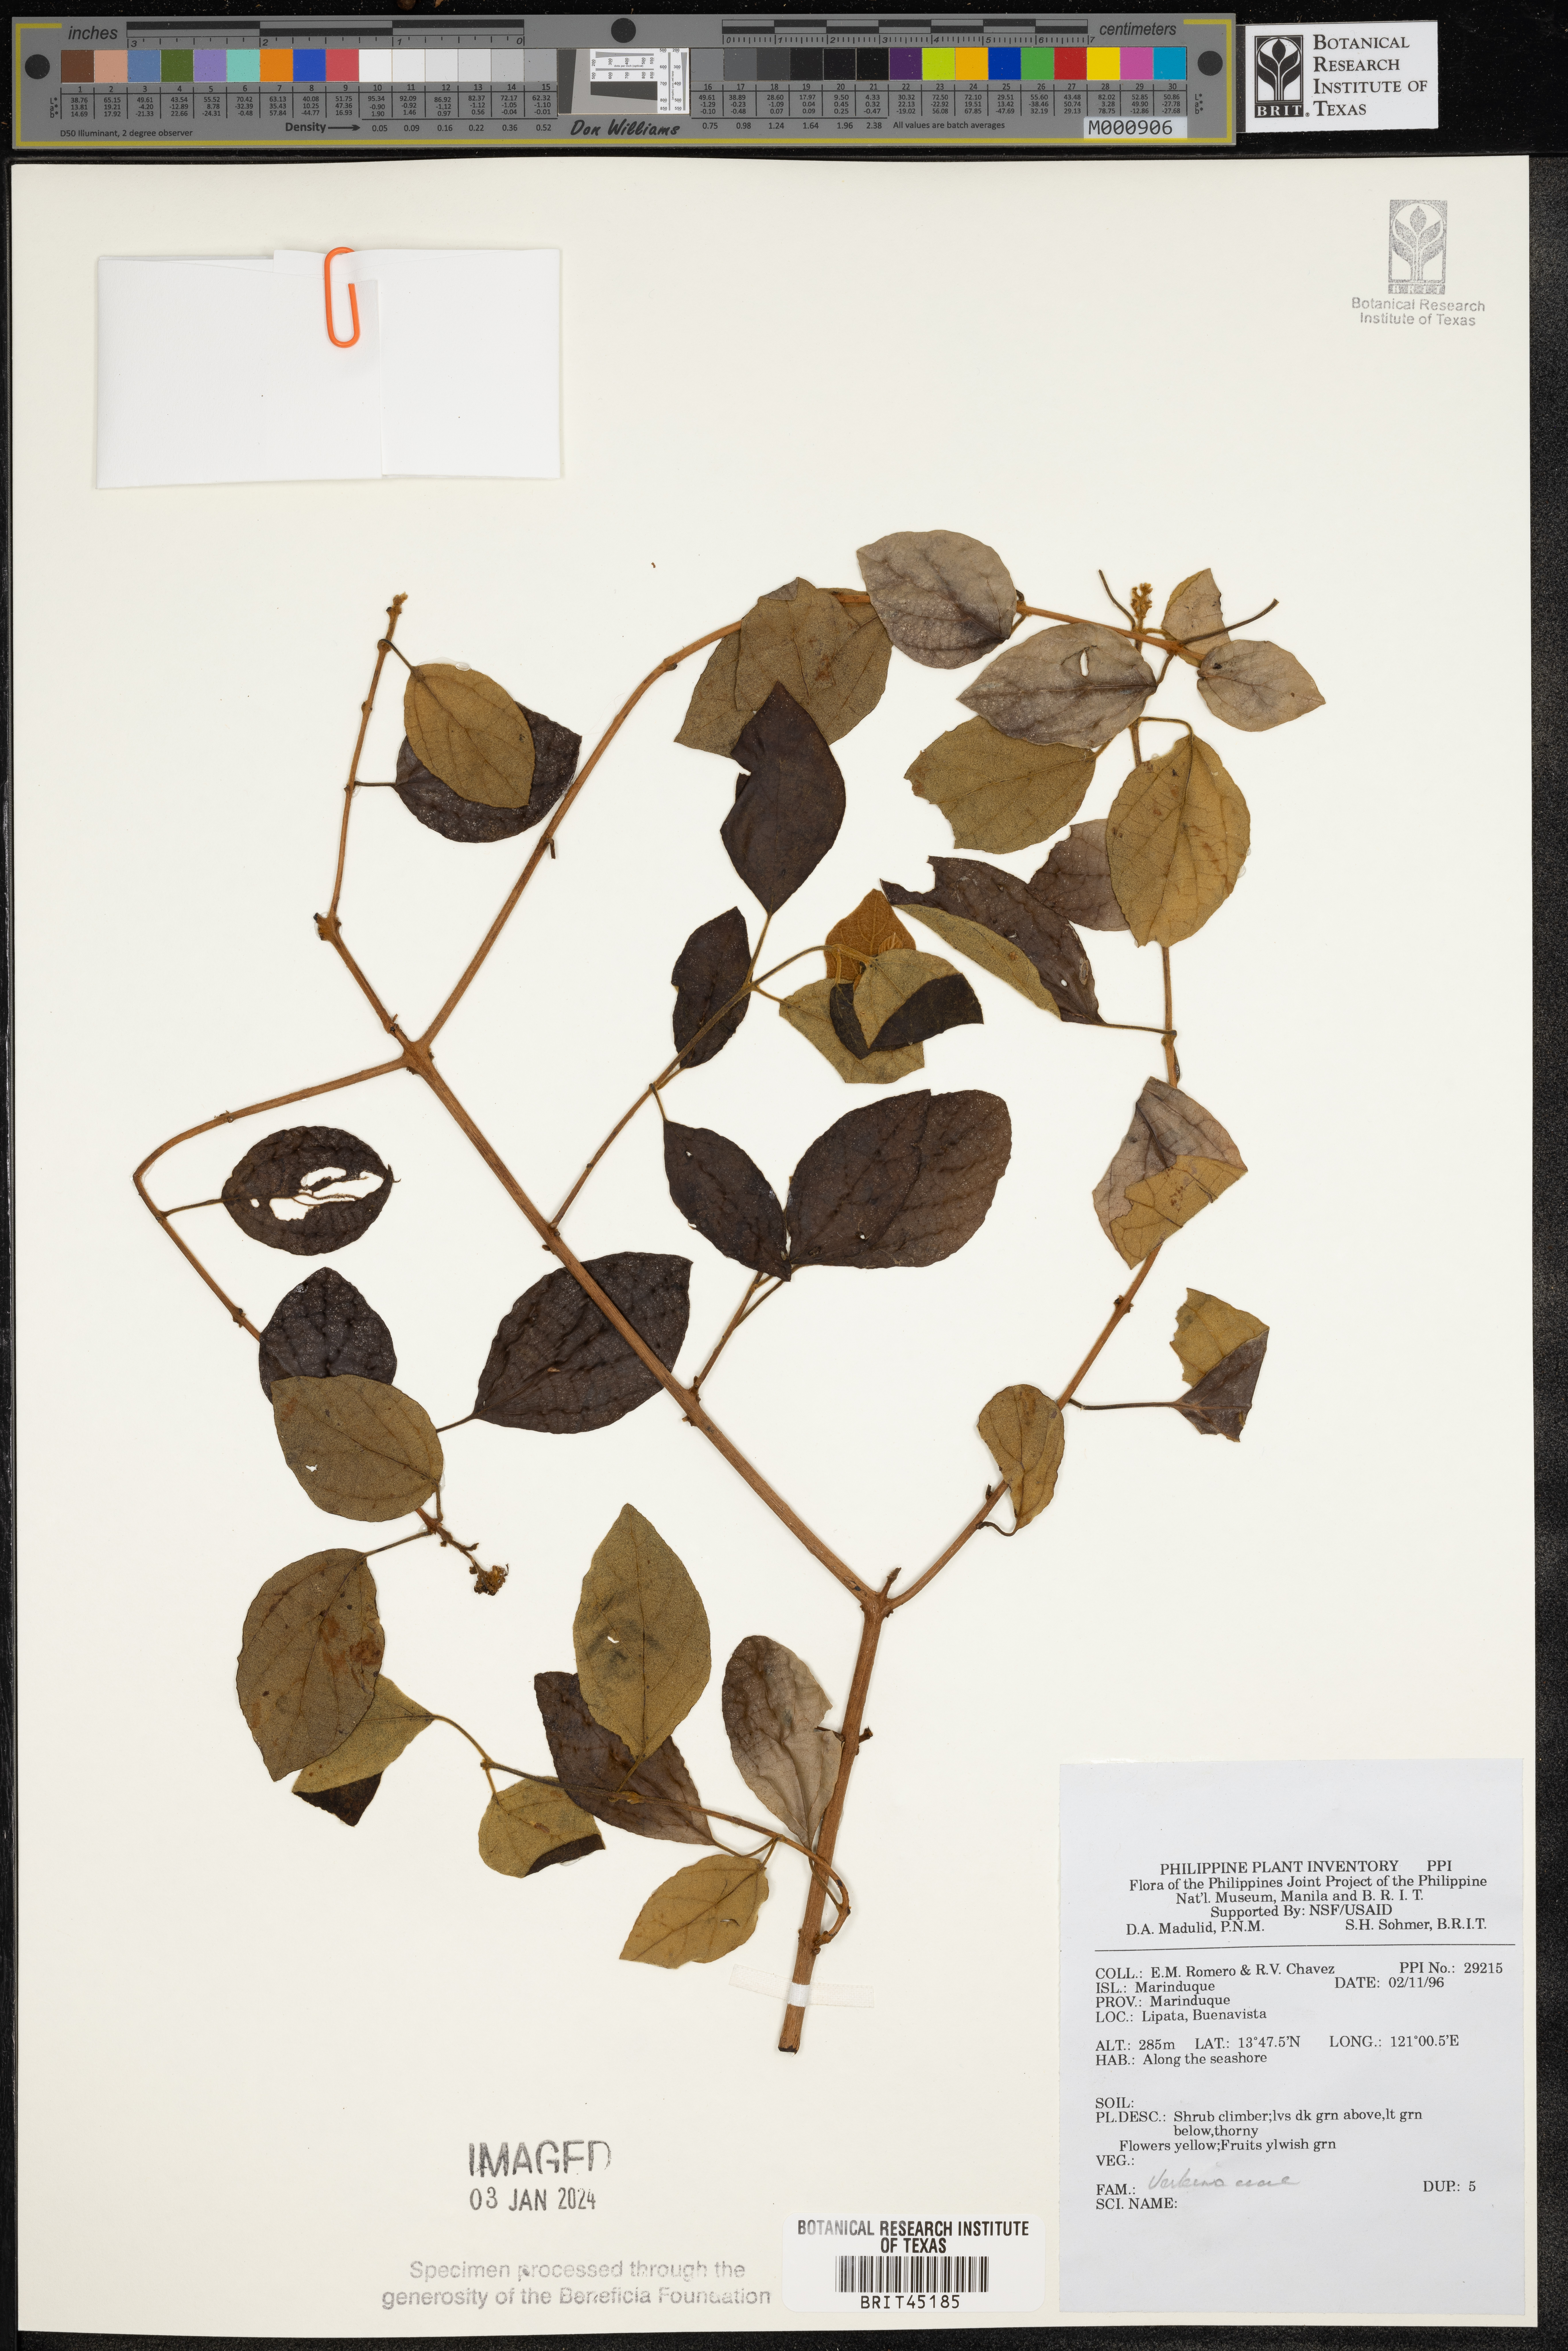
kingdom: Plantae
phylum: Tracheophyta
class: Magnoliopsida
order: Lamiales
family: Verbenaceae
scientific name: Verbenaceae
